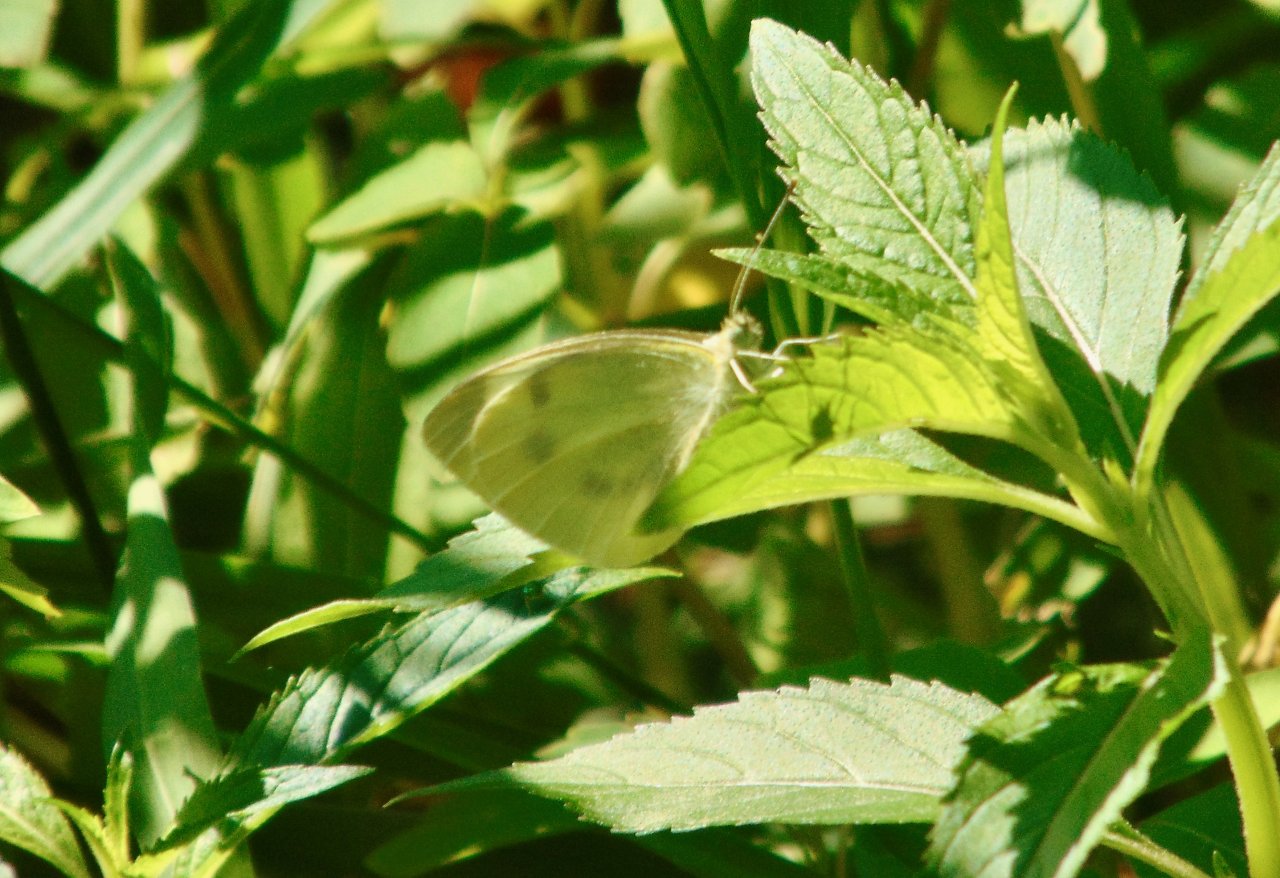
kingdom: Animalia
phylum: Arthropoda
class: Insecta
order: Lepidoptera
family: Pieridae
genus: Pieris
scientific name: Pieris rapae
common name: Cabbage White
